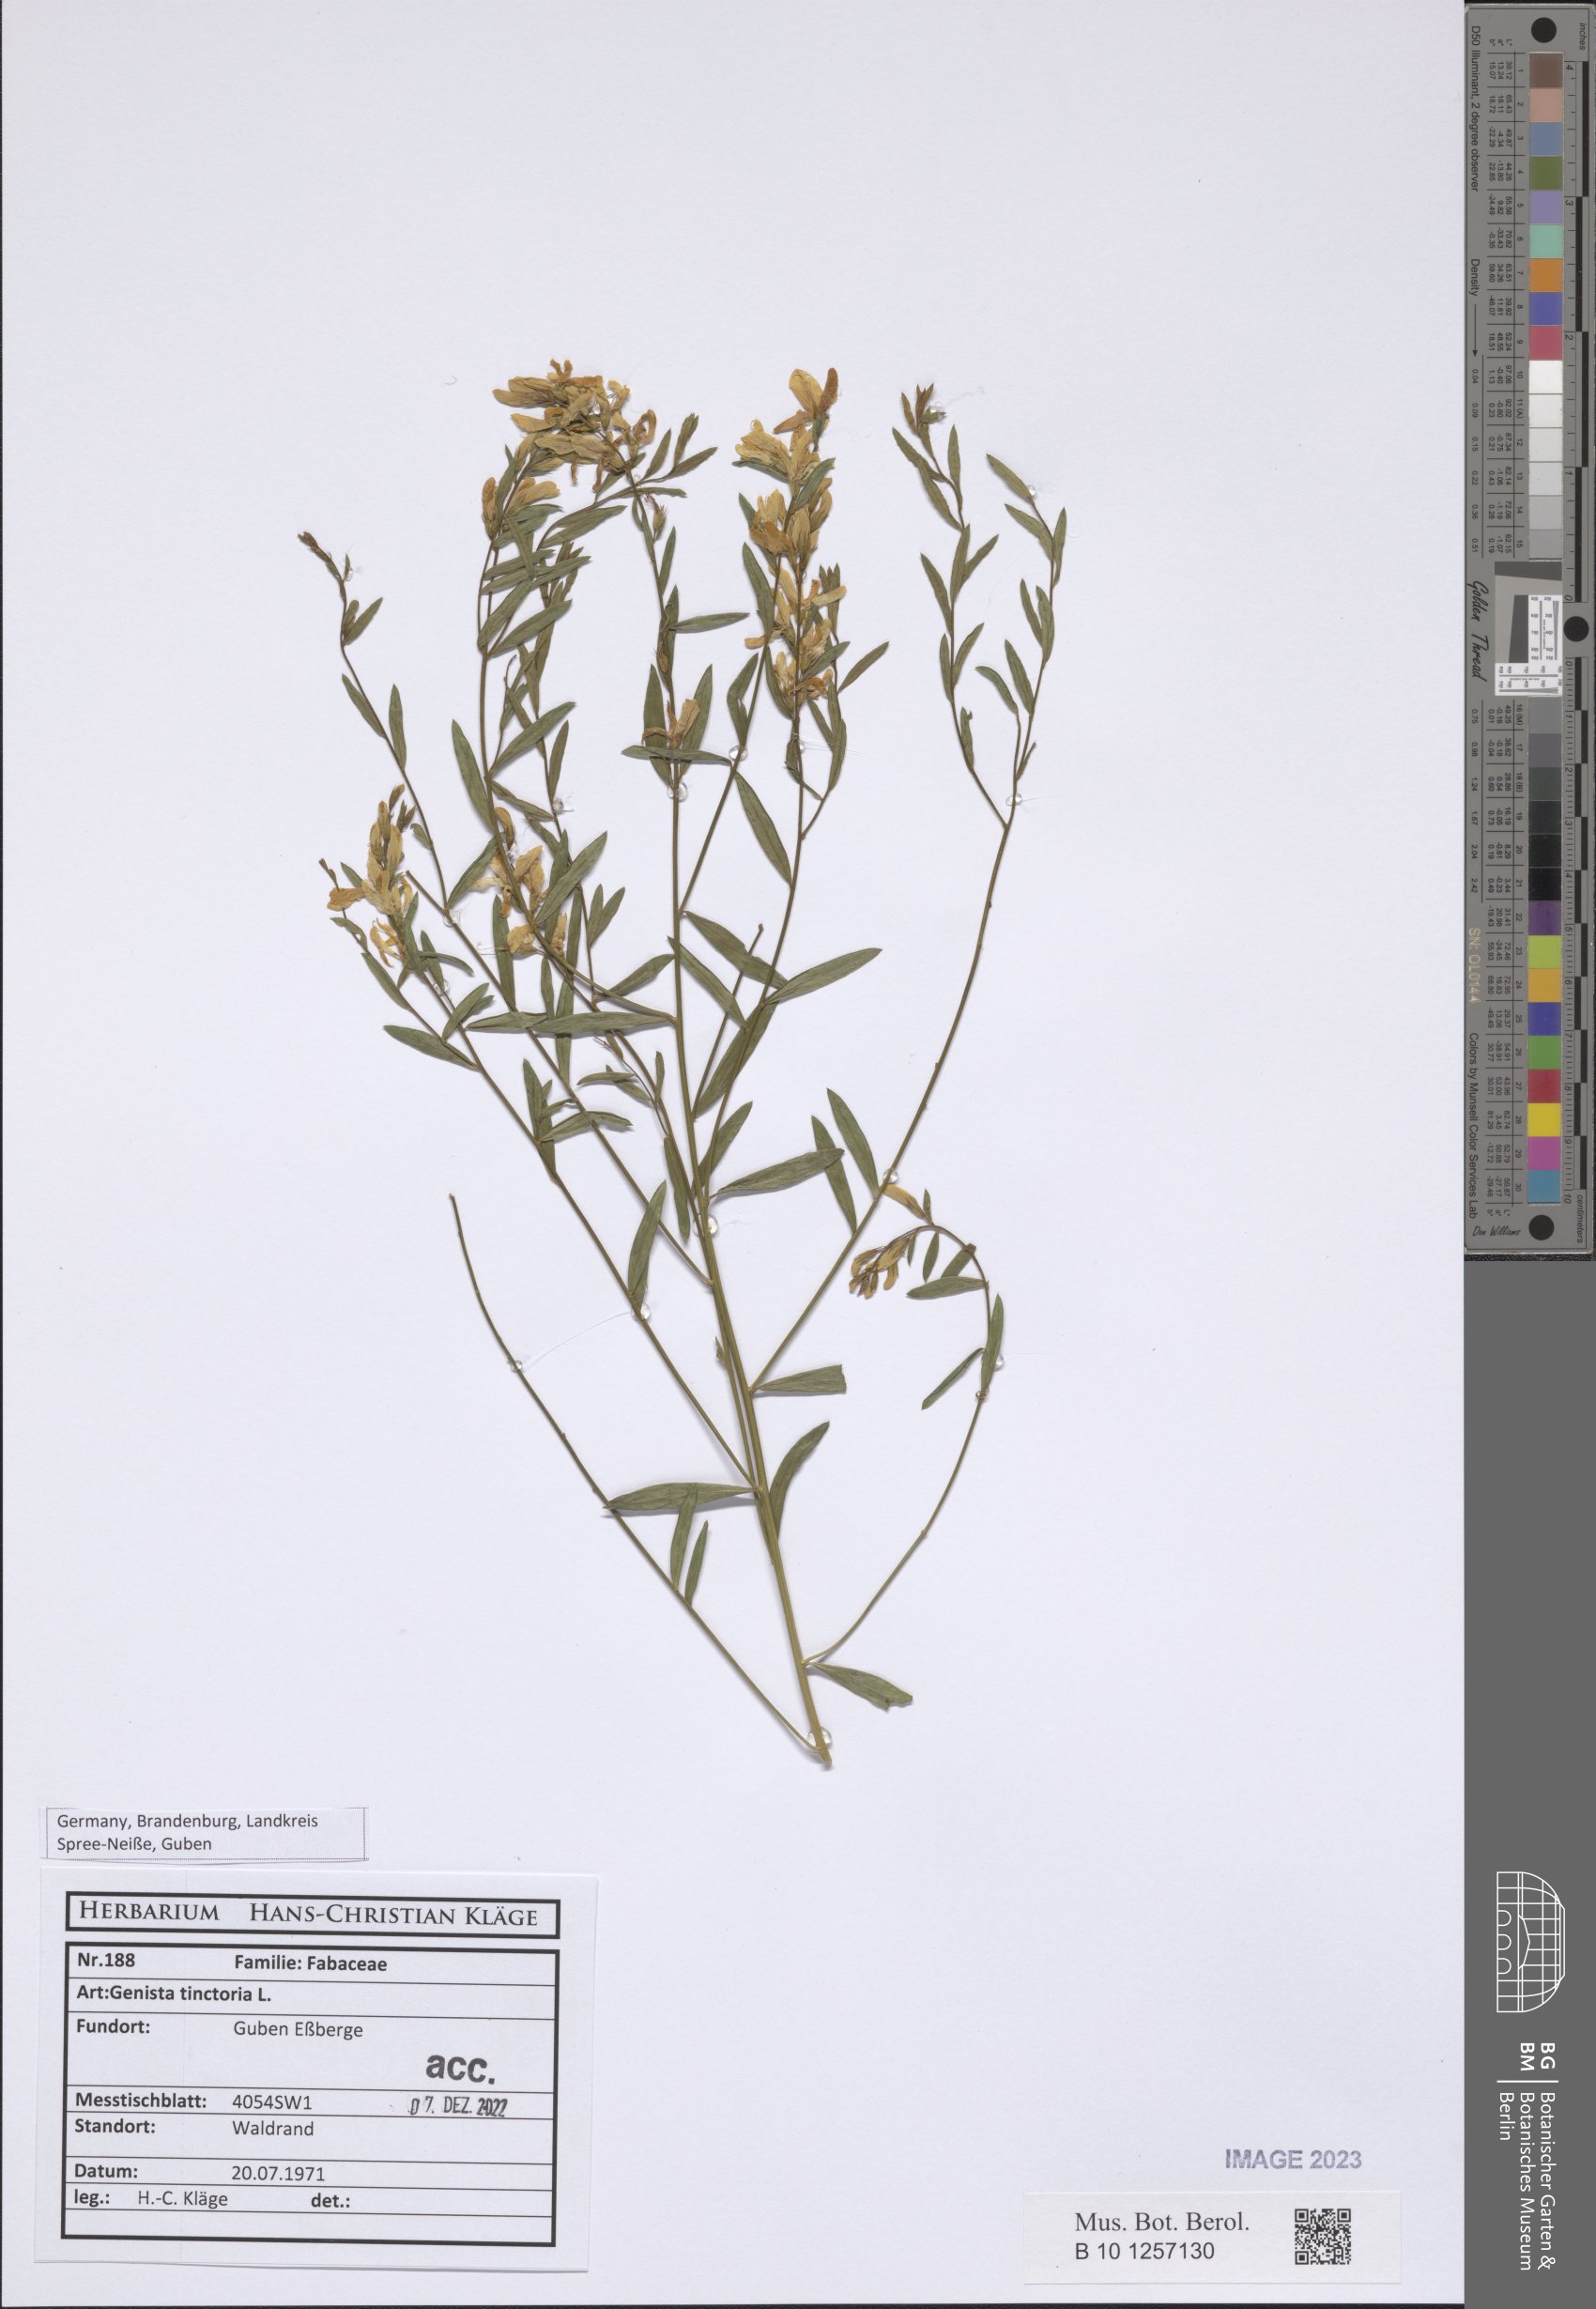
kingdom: Plantae
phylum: Tracheophyta
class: Magnoliopsida
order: Fabales
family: Fabaceae
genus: Genista
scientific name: Genista tinctoria
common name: Dyer's greenweed
